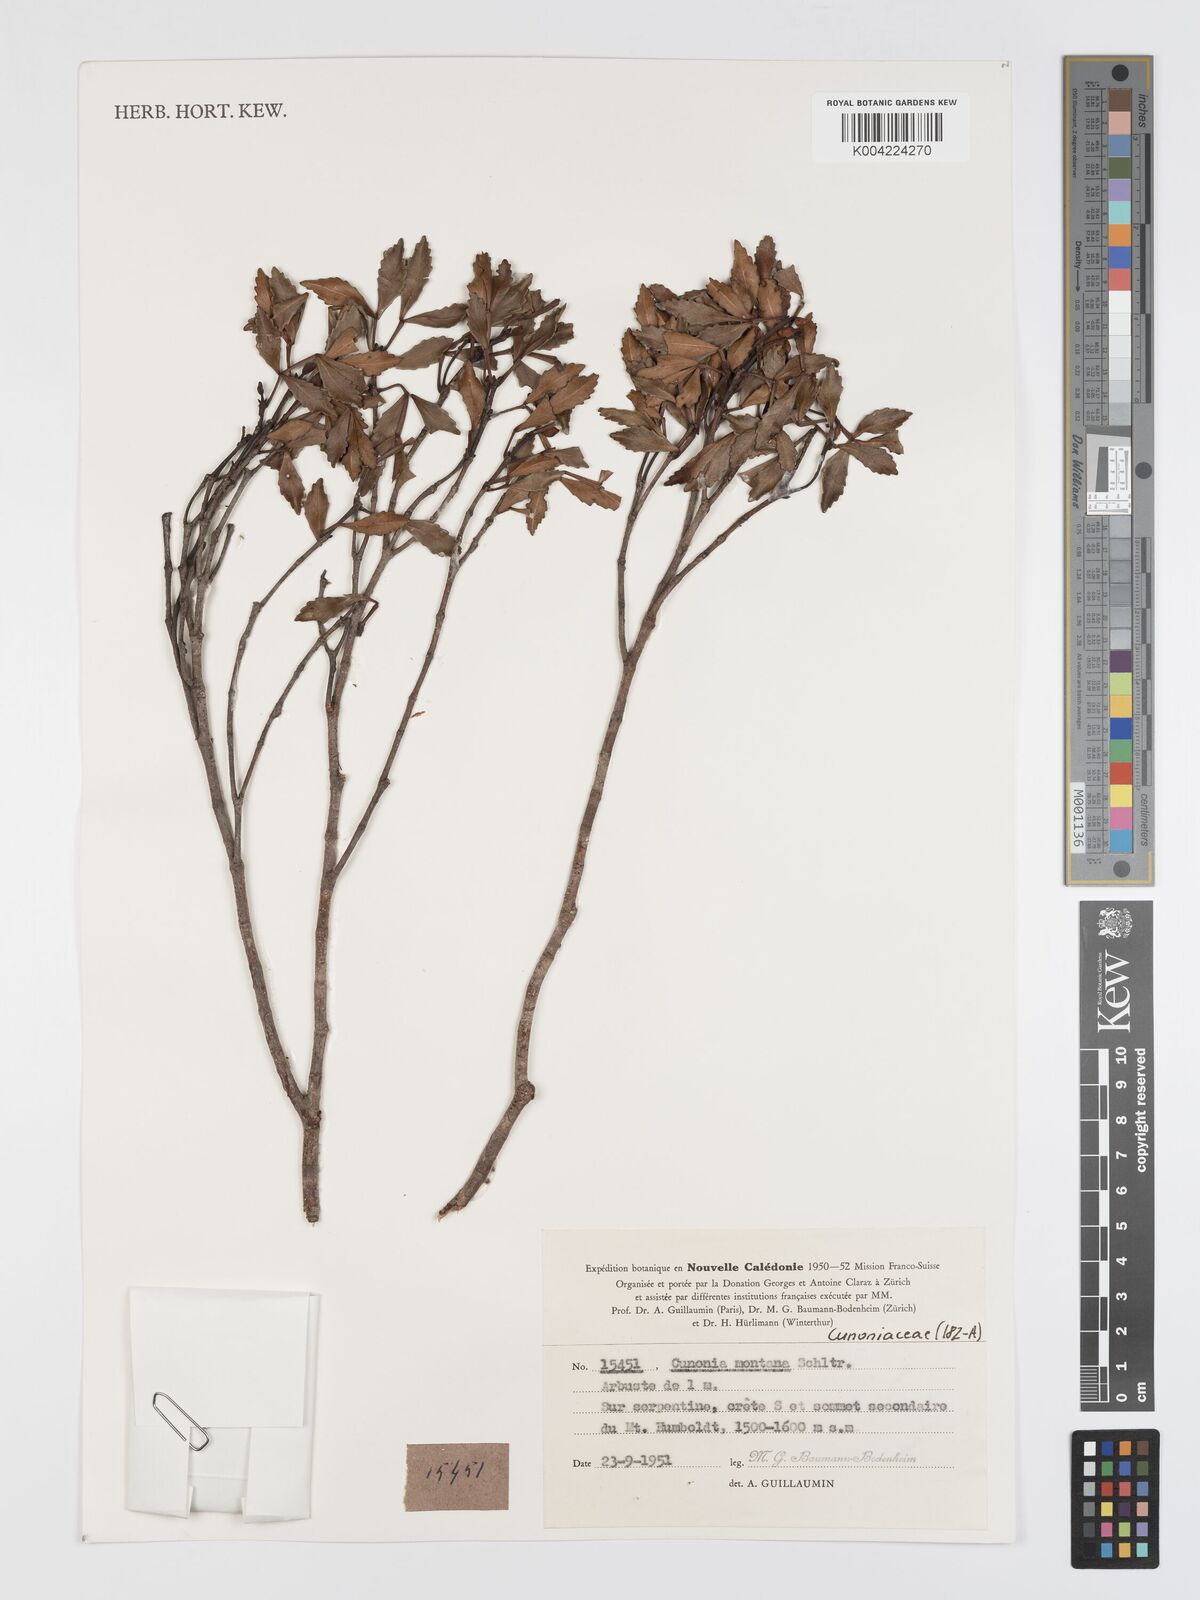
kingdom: Plantae
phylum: Tracheophyta
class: Magnoliopsida
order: Oxalidales
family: Cunoniaceae
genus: Cunonia
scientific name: Cunonia montana
